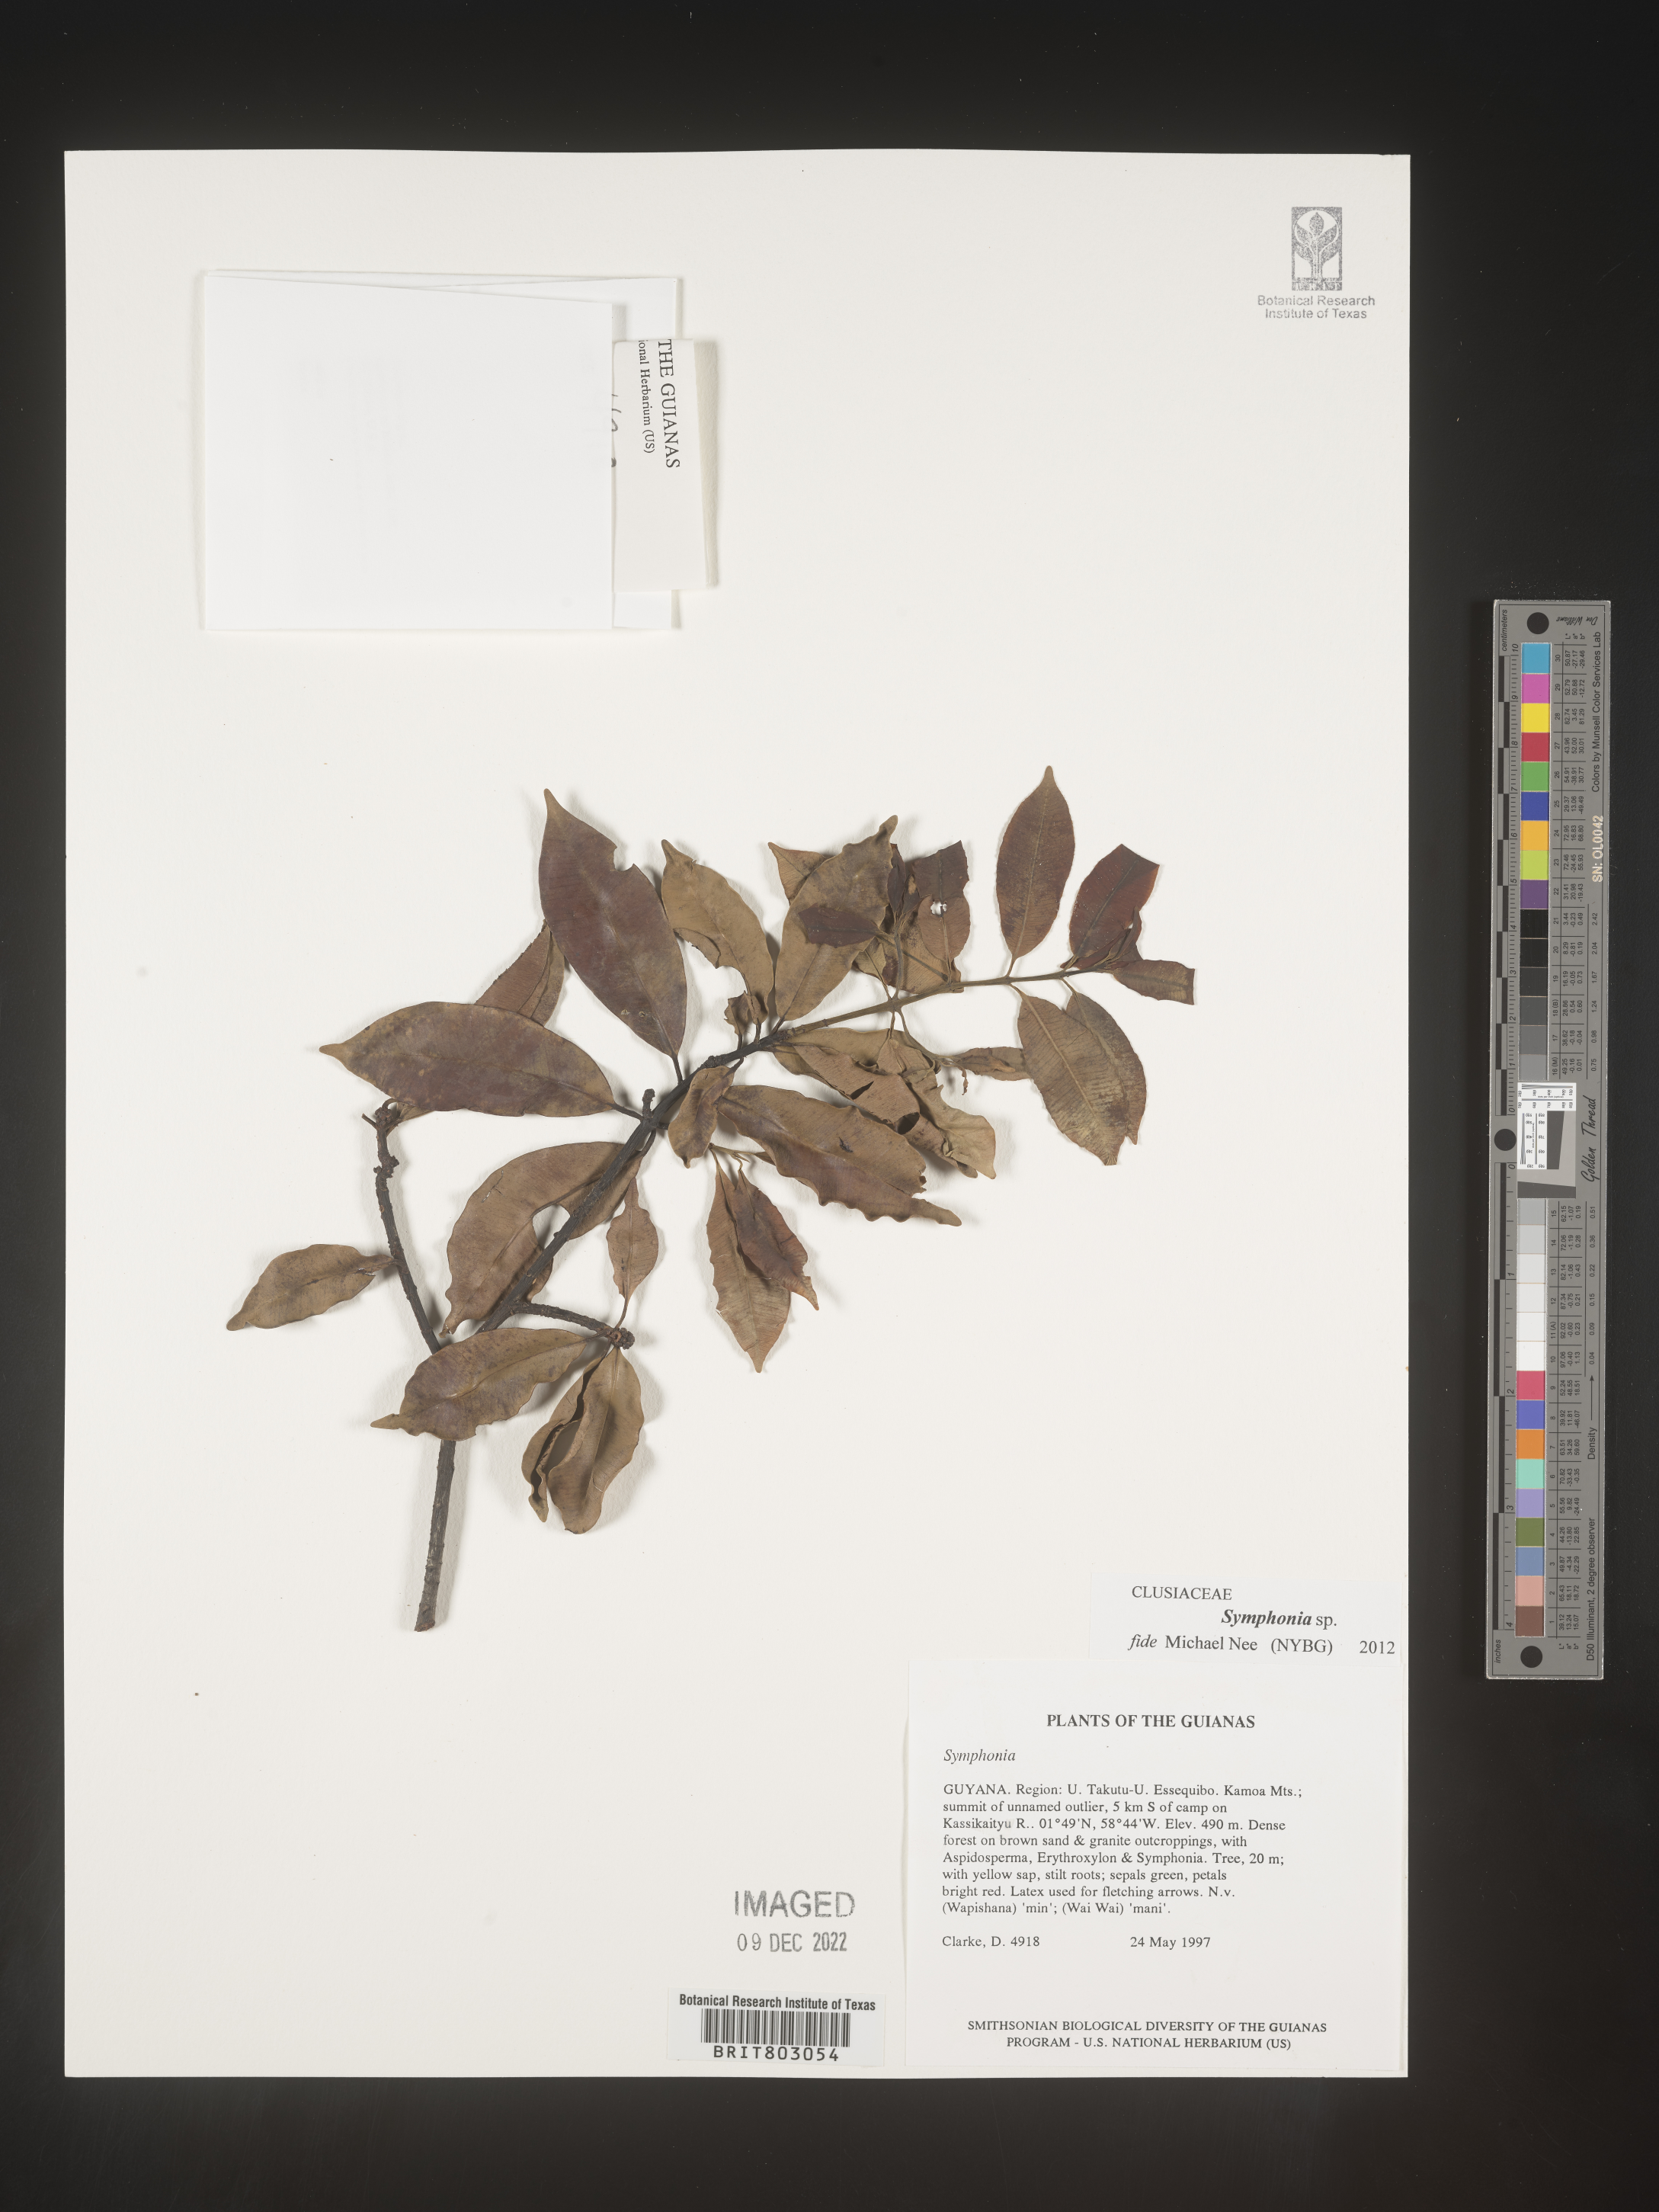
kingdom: Plantae
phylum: Tracheophyta
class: Magnoliopsida
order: Malpighiales
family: Clusiaceae
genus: Symphonia
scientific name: Symphonia
